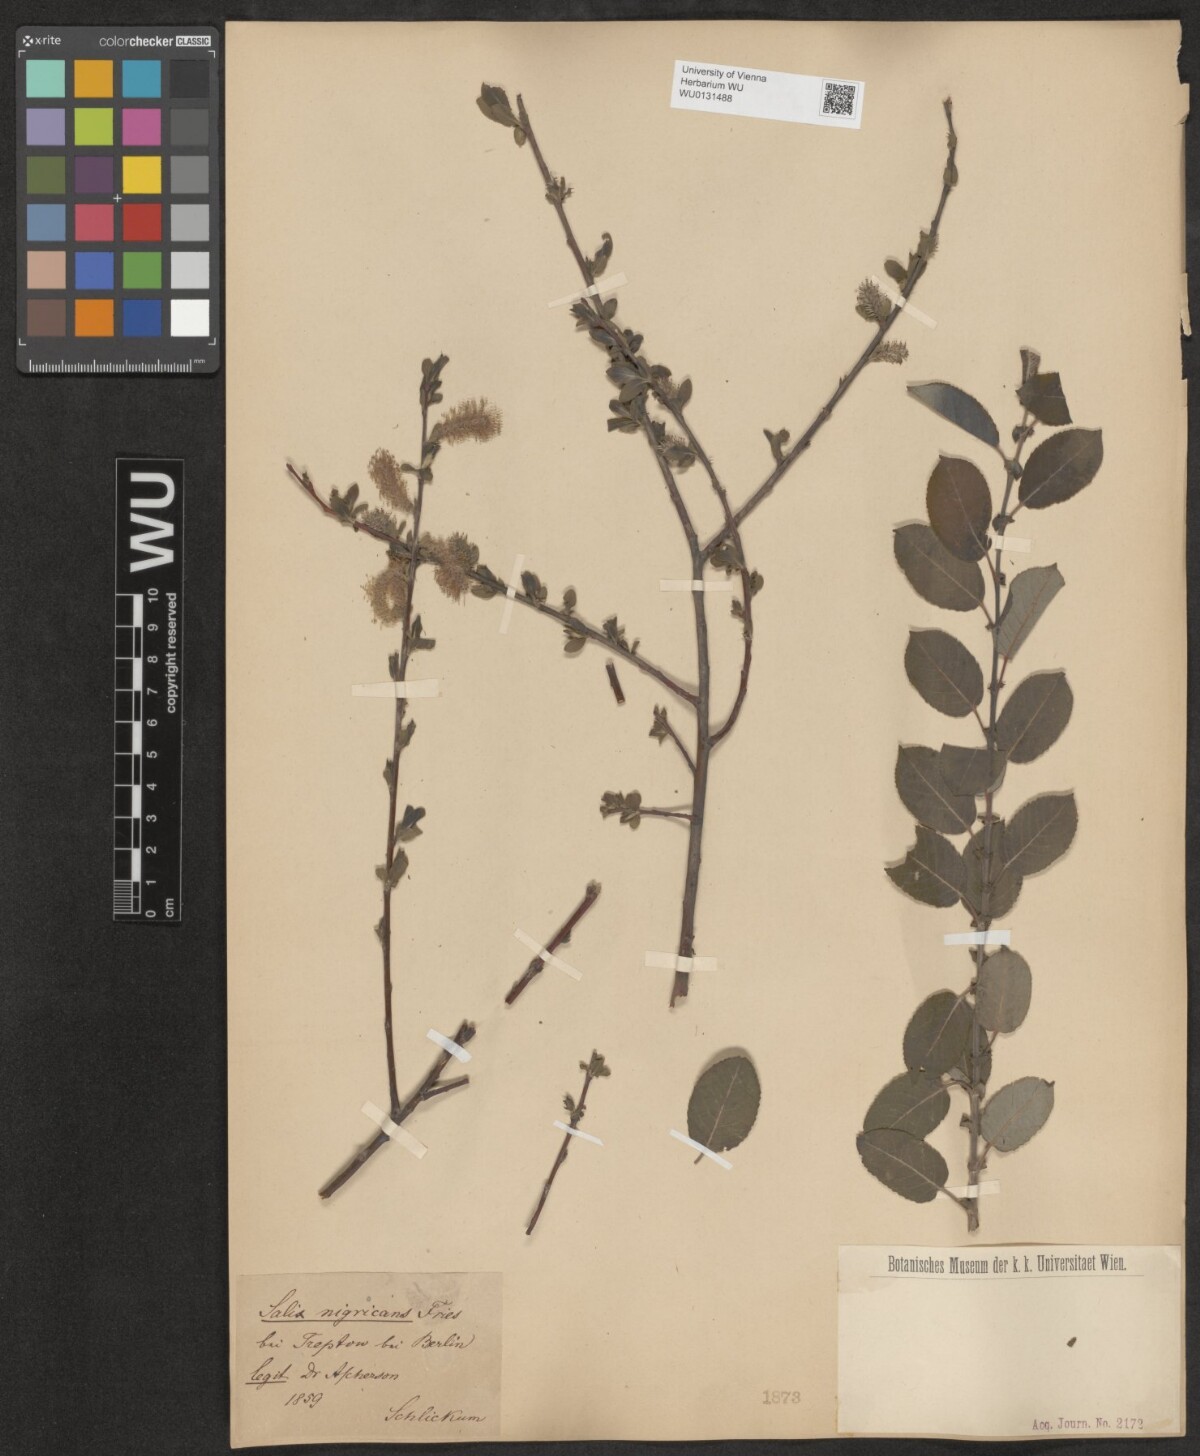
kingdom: Plantae
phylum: Tracheophyta
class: Magnoliopsida
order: Malpighiales
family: Salicaceae
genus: Salix
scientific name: Salix myrsinifolia
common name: Dark-leaved willow
